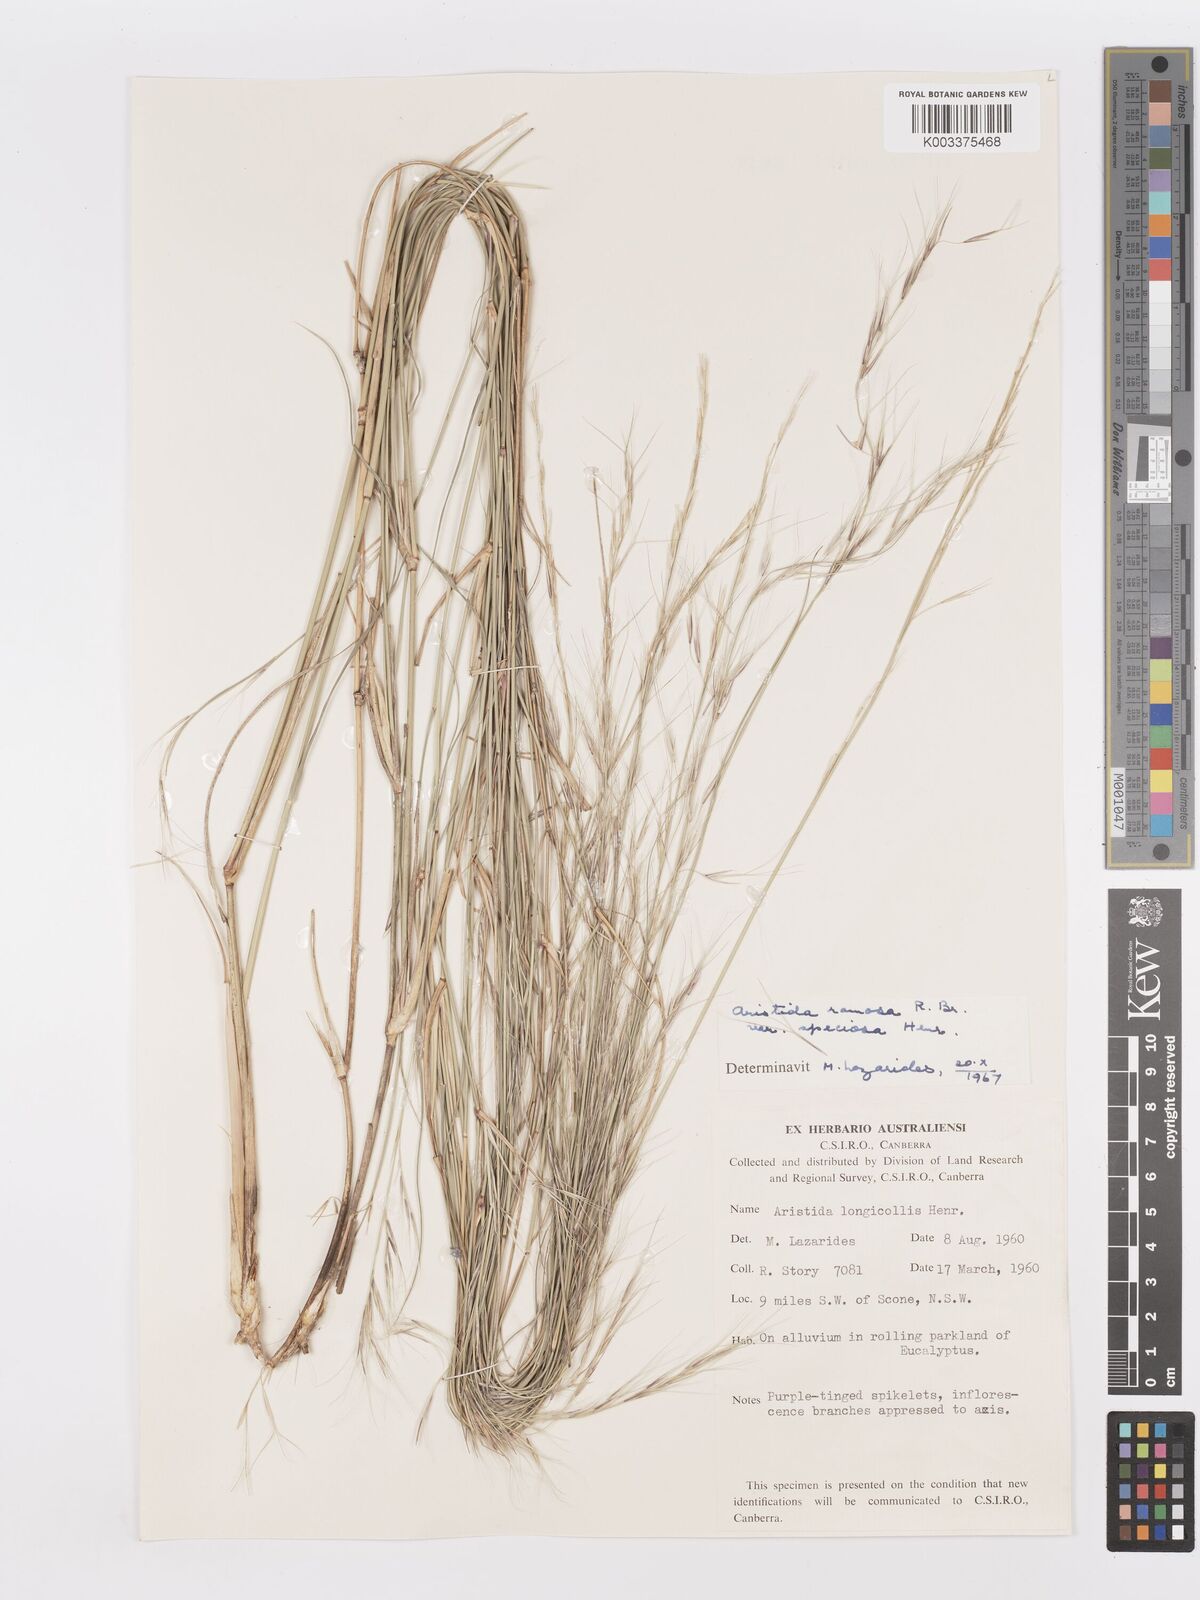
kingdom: Plantae
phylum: Tracheophyta
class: Liliopsida
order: Poales
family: Poaceae
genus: Aristida
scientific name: Aristida ramosa
